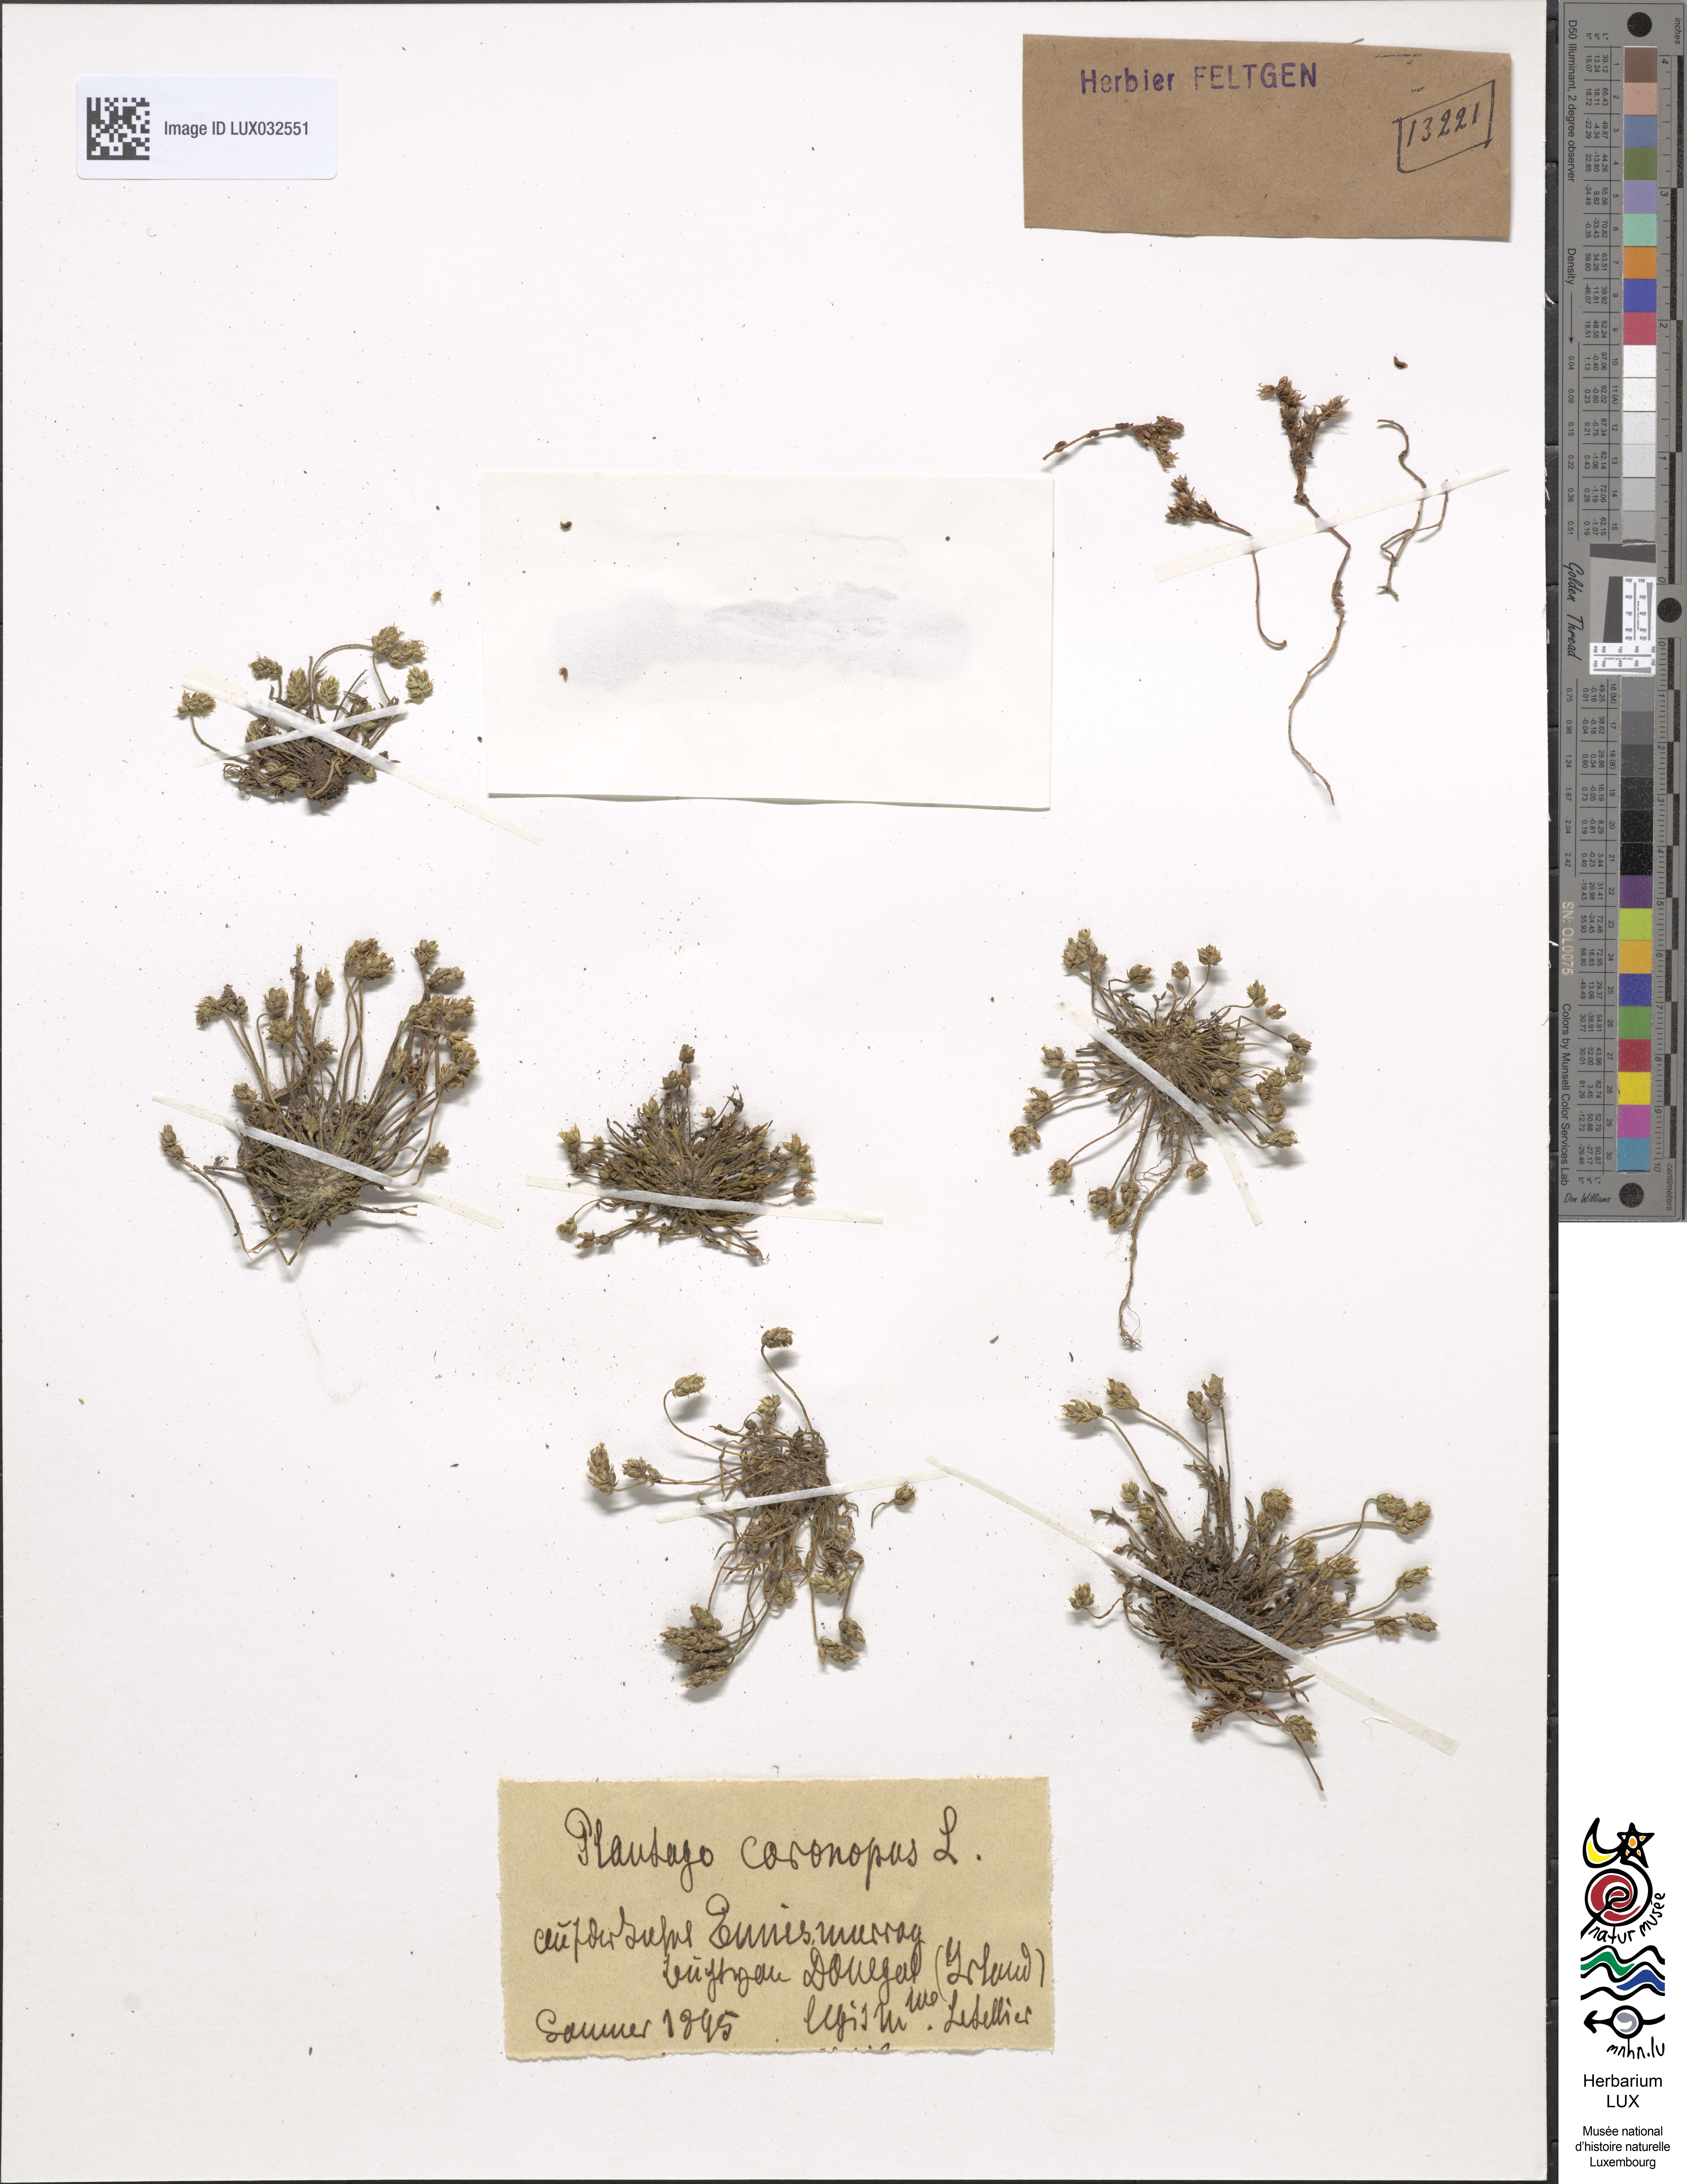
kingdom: Plantae
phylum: Tracheophyta
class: Magnoliopsida
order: Lamiales
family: Plantaginaceae
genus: Plantago
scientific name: Plantago coronopus
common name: Buck's-horn plantain
